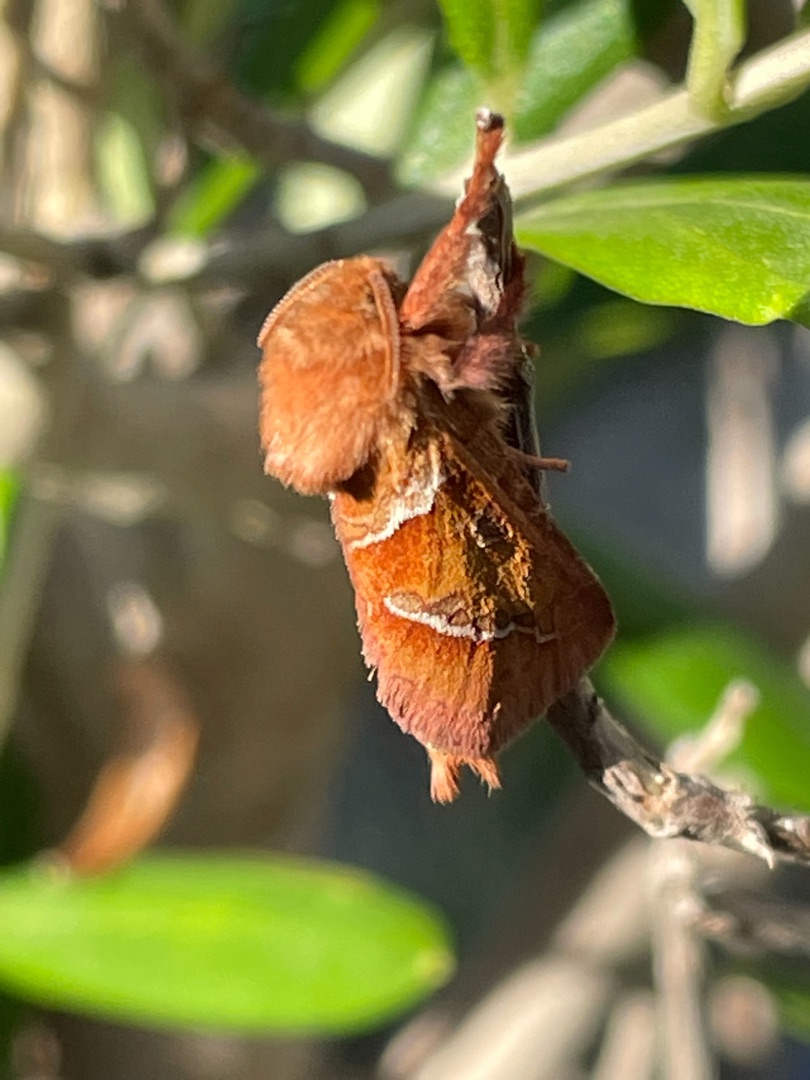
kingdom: Animalia
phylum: Arthropoda
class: Insecta
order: Lepidoptera
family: Hepialidae
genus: Triodia
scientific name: Triodia sylvina
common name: Skræpperodæder
